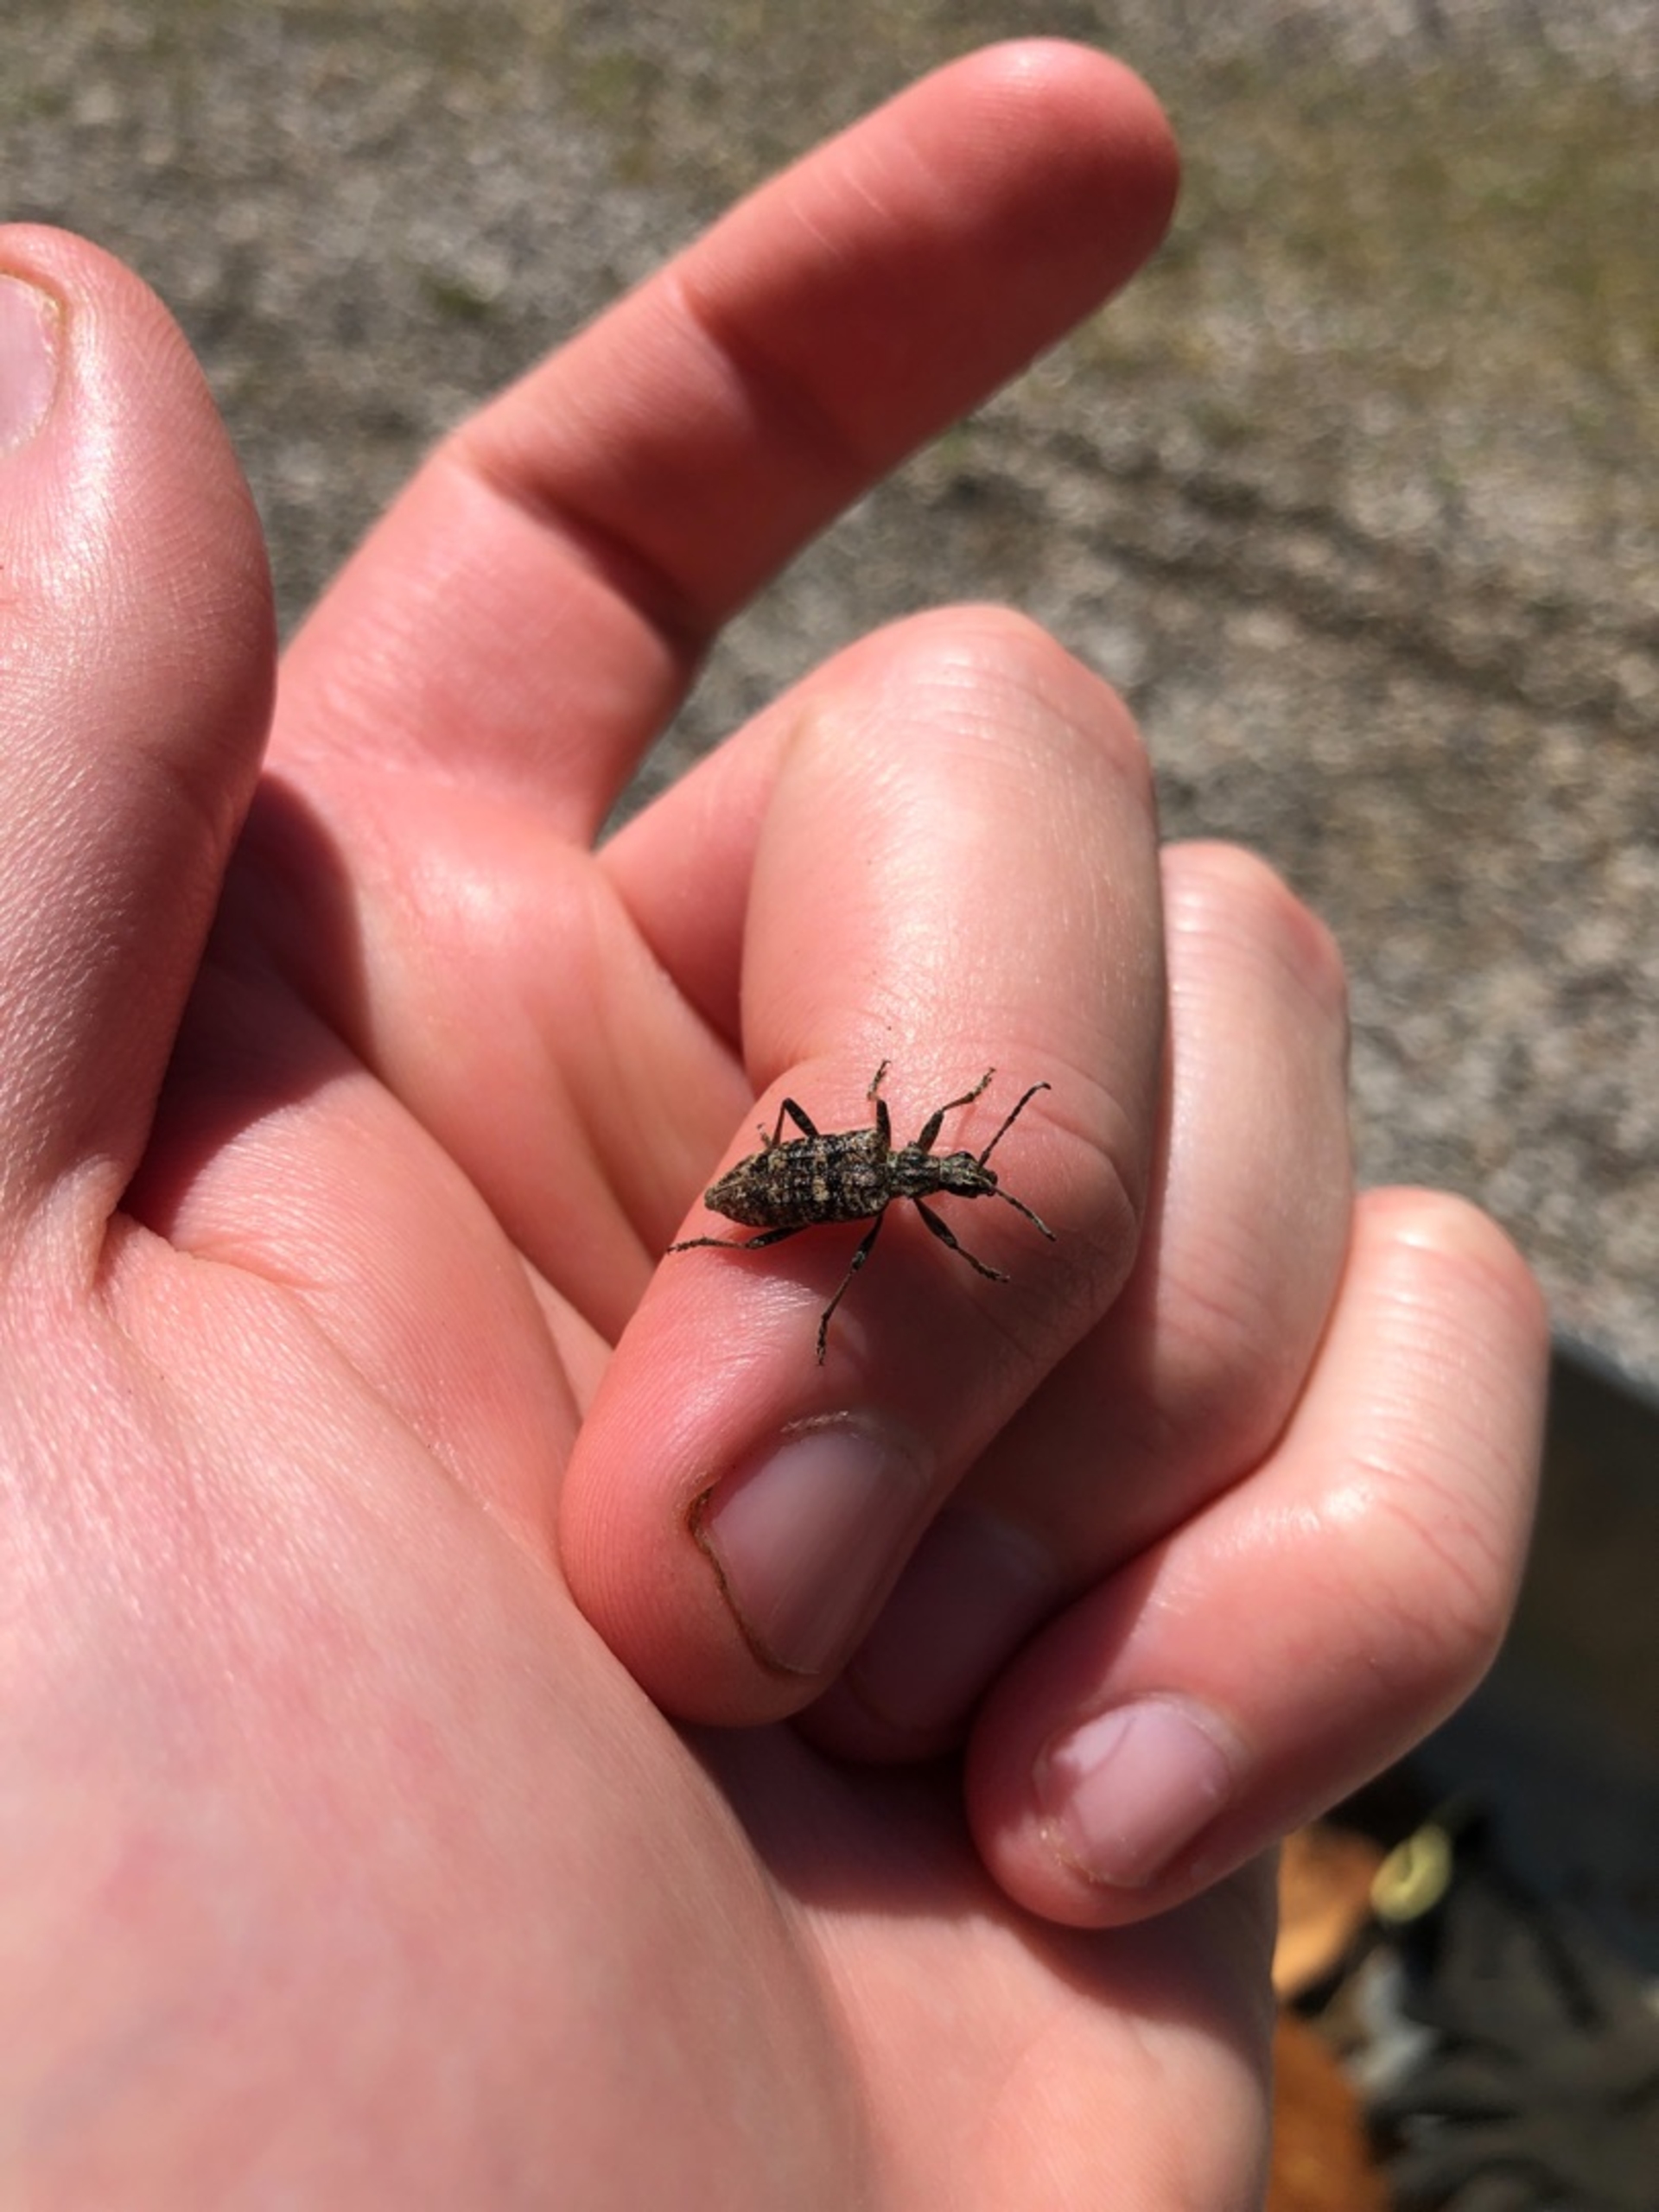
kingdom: Animalia
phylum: Arthropoda
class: Insecta
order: Coleoptera
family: Cerambycidae
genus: Rhagium
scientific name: Rhagium inquisitor
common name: Fyrretandbuk
